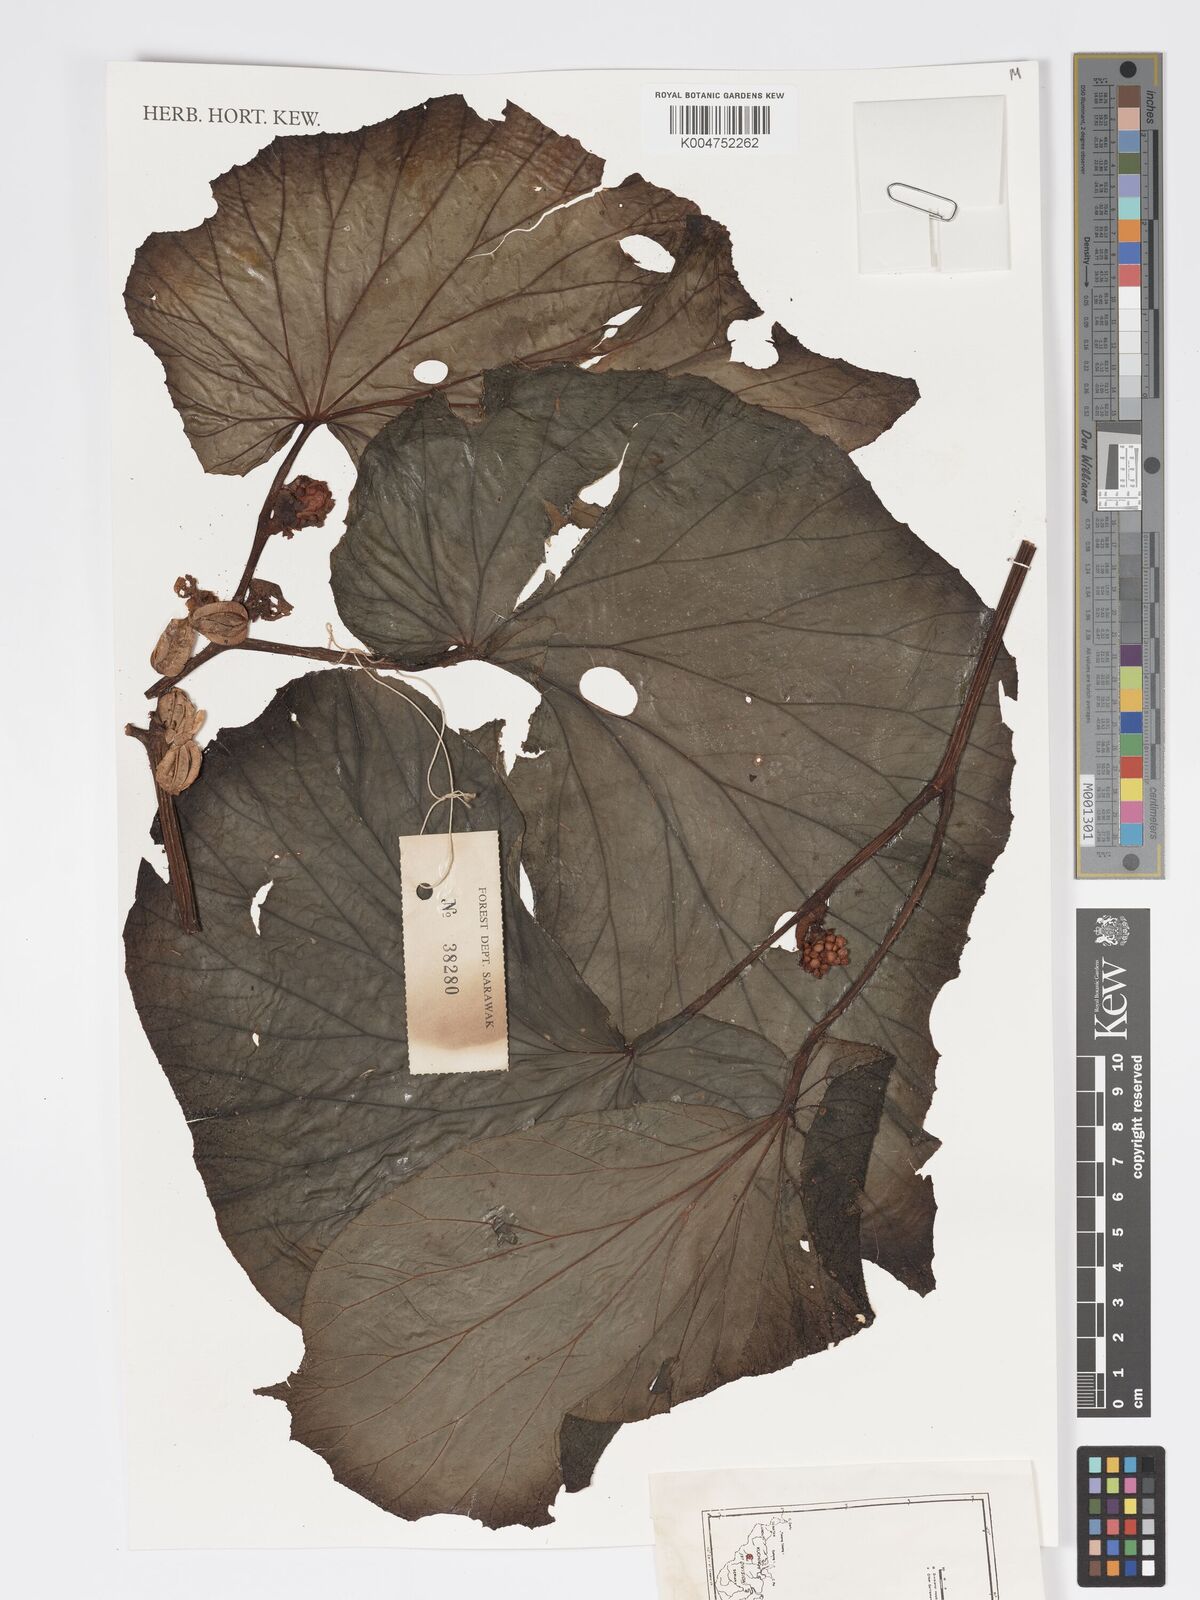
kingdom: Plantae
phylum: Tracheophyta
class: Magnoliopsida
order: Cucurbitales
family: Begoniaceae
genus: Begonia
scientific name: Begonia congesta
